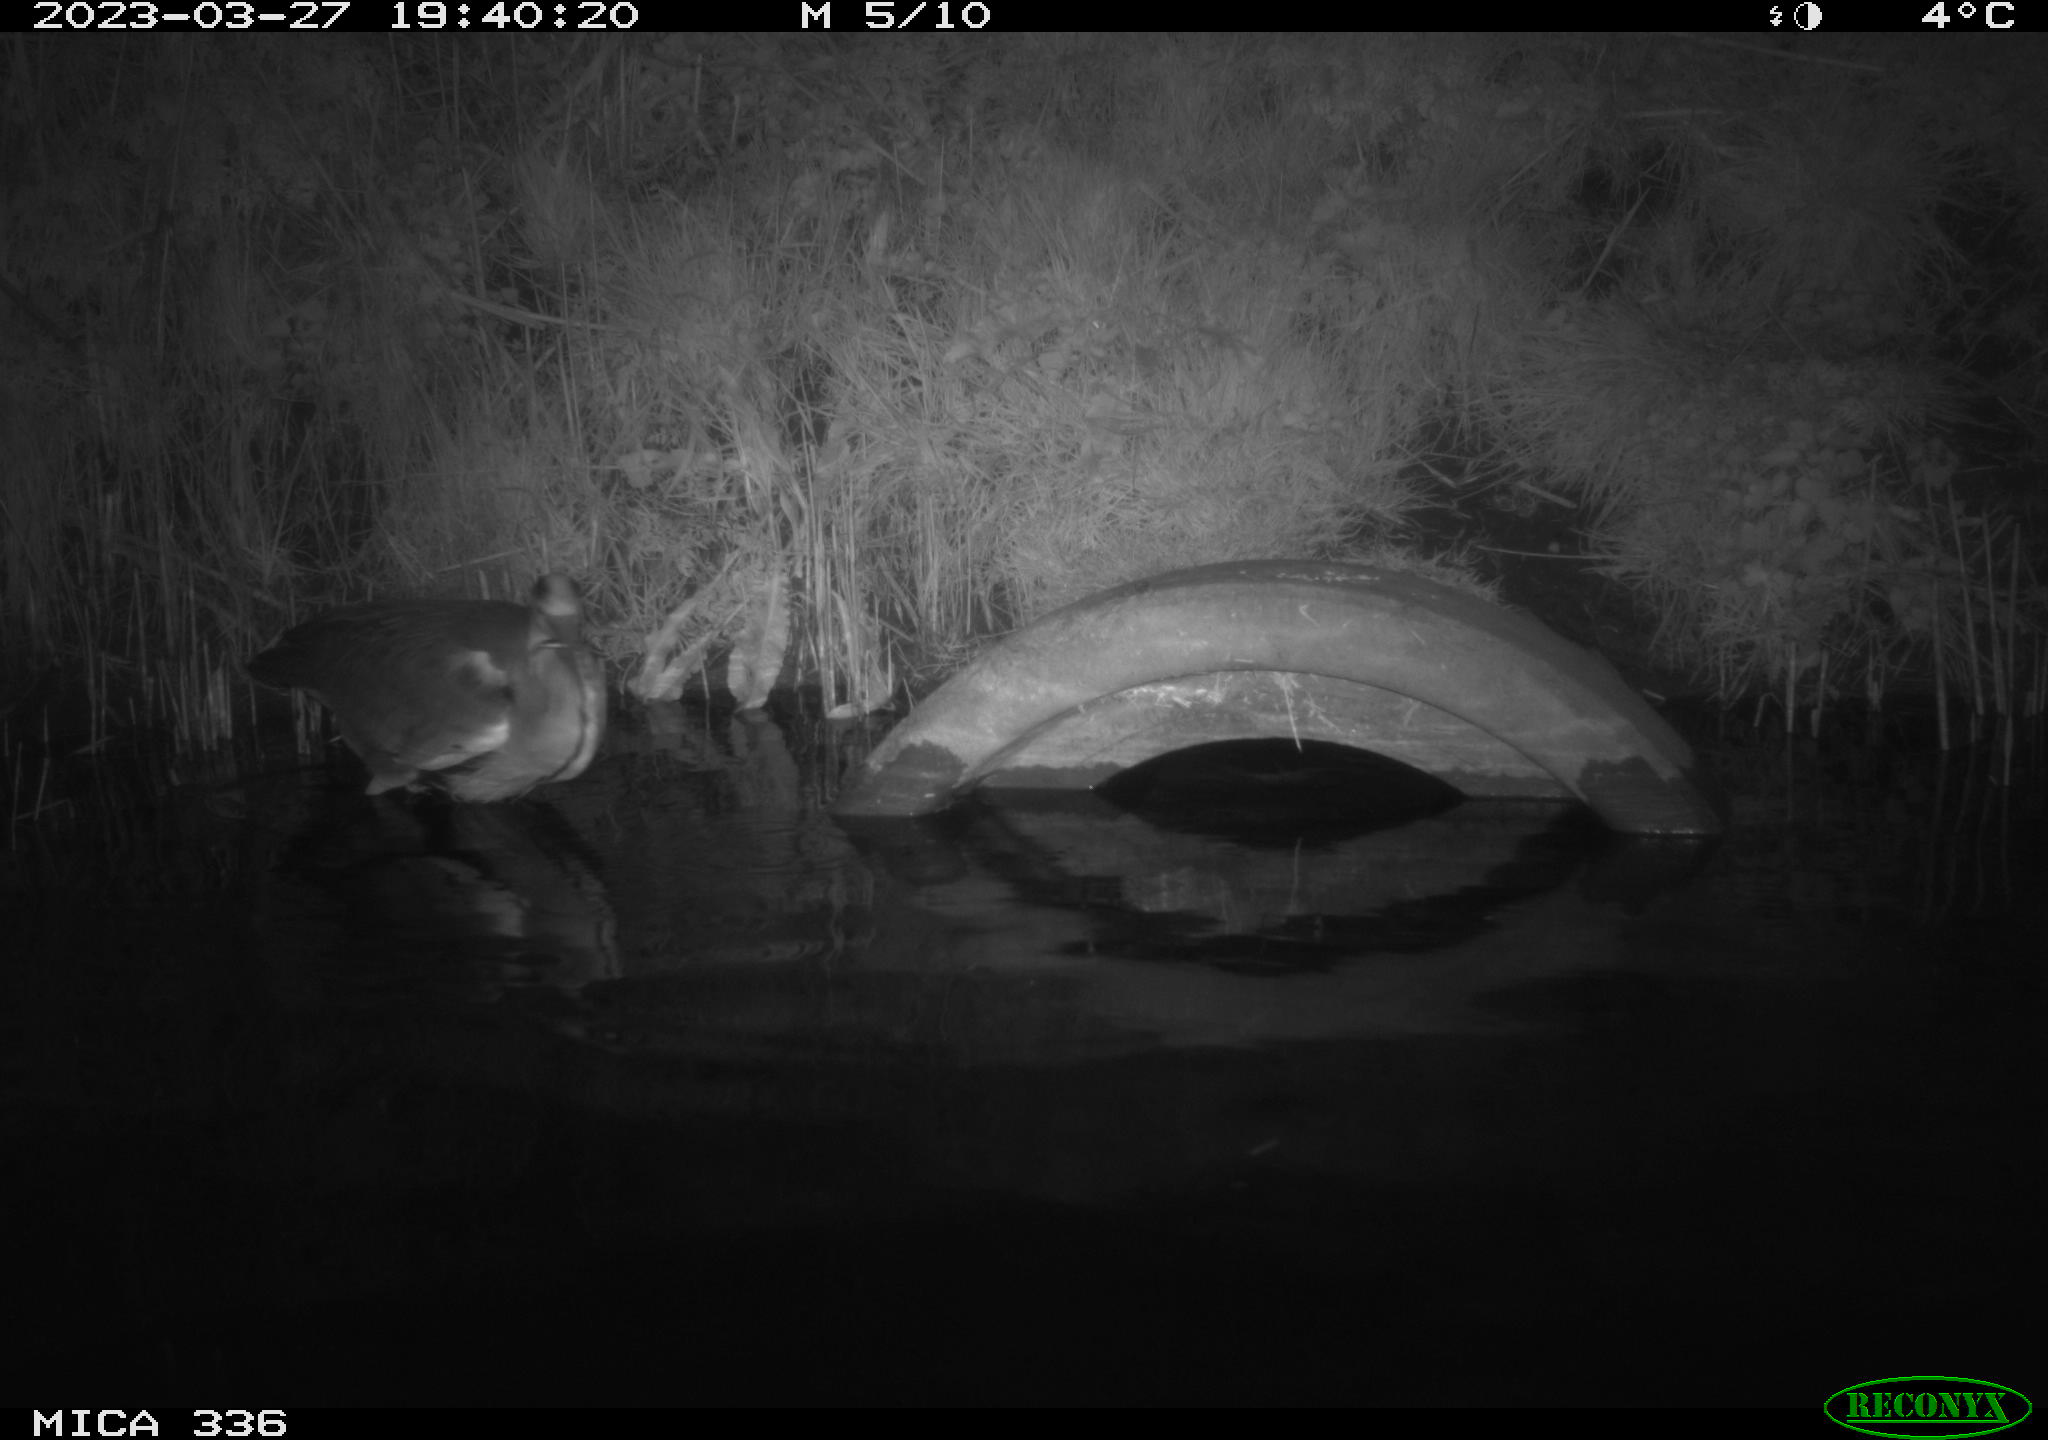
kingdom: Animalia
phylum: Chordata
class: Aves
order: Pelecaniformes
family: Ardeidae
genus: Ardea
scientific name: Ardea
